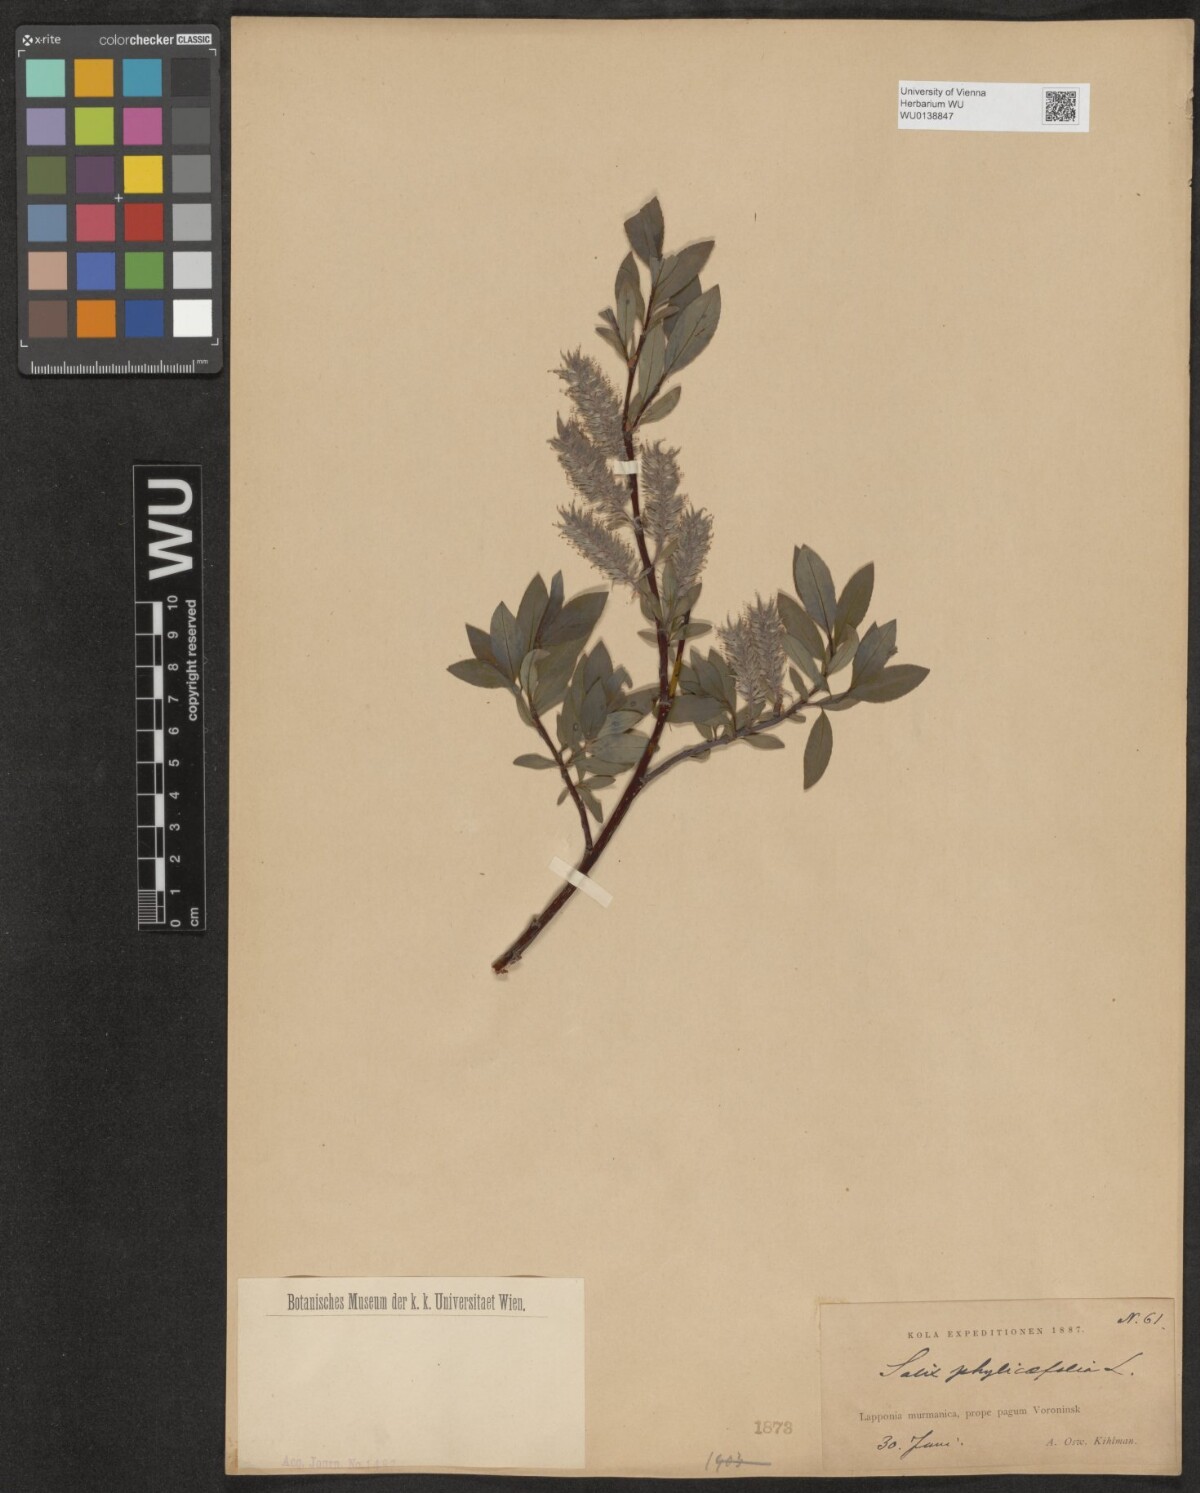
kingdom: Plantae
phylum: Tracheophyta
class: Magnoliopsida
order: Malpighiales
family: Salicaceae
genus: Salix
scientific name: Salix phylicifolia
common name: Tea-leaved willow
